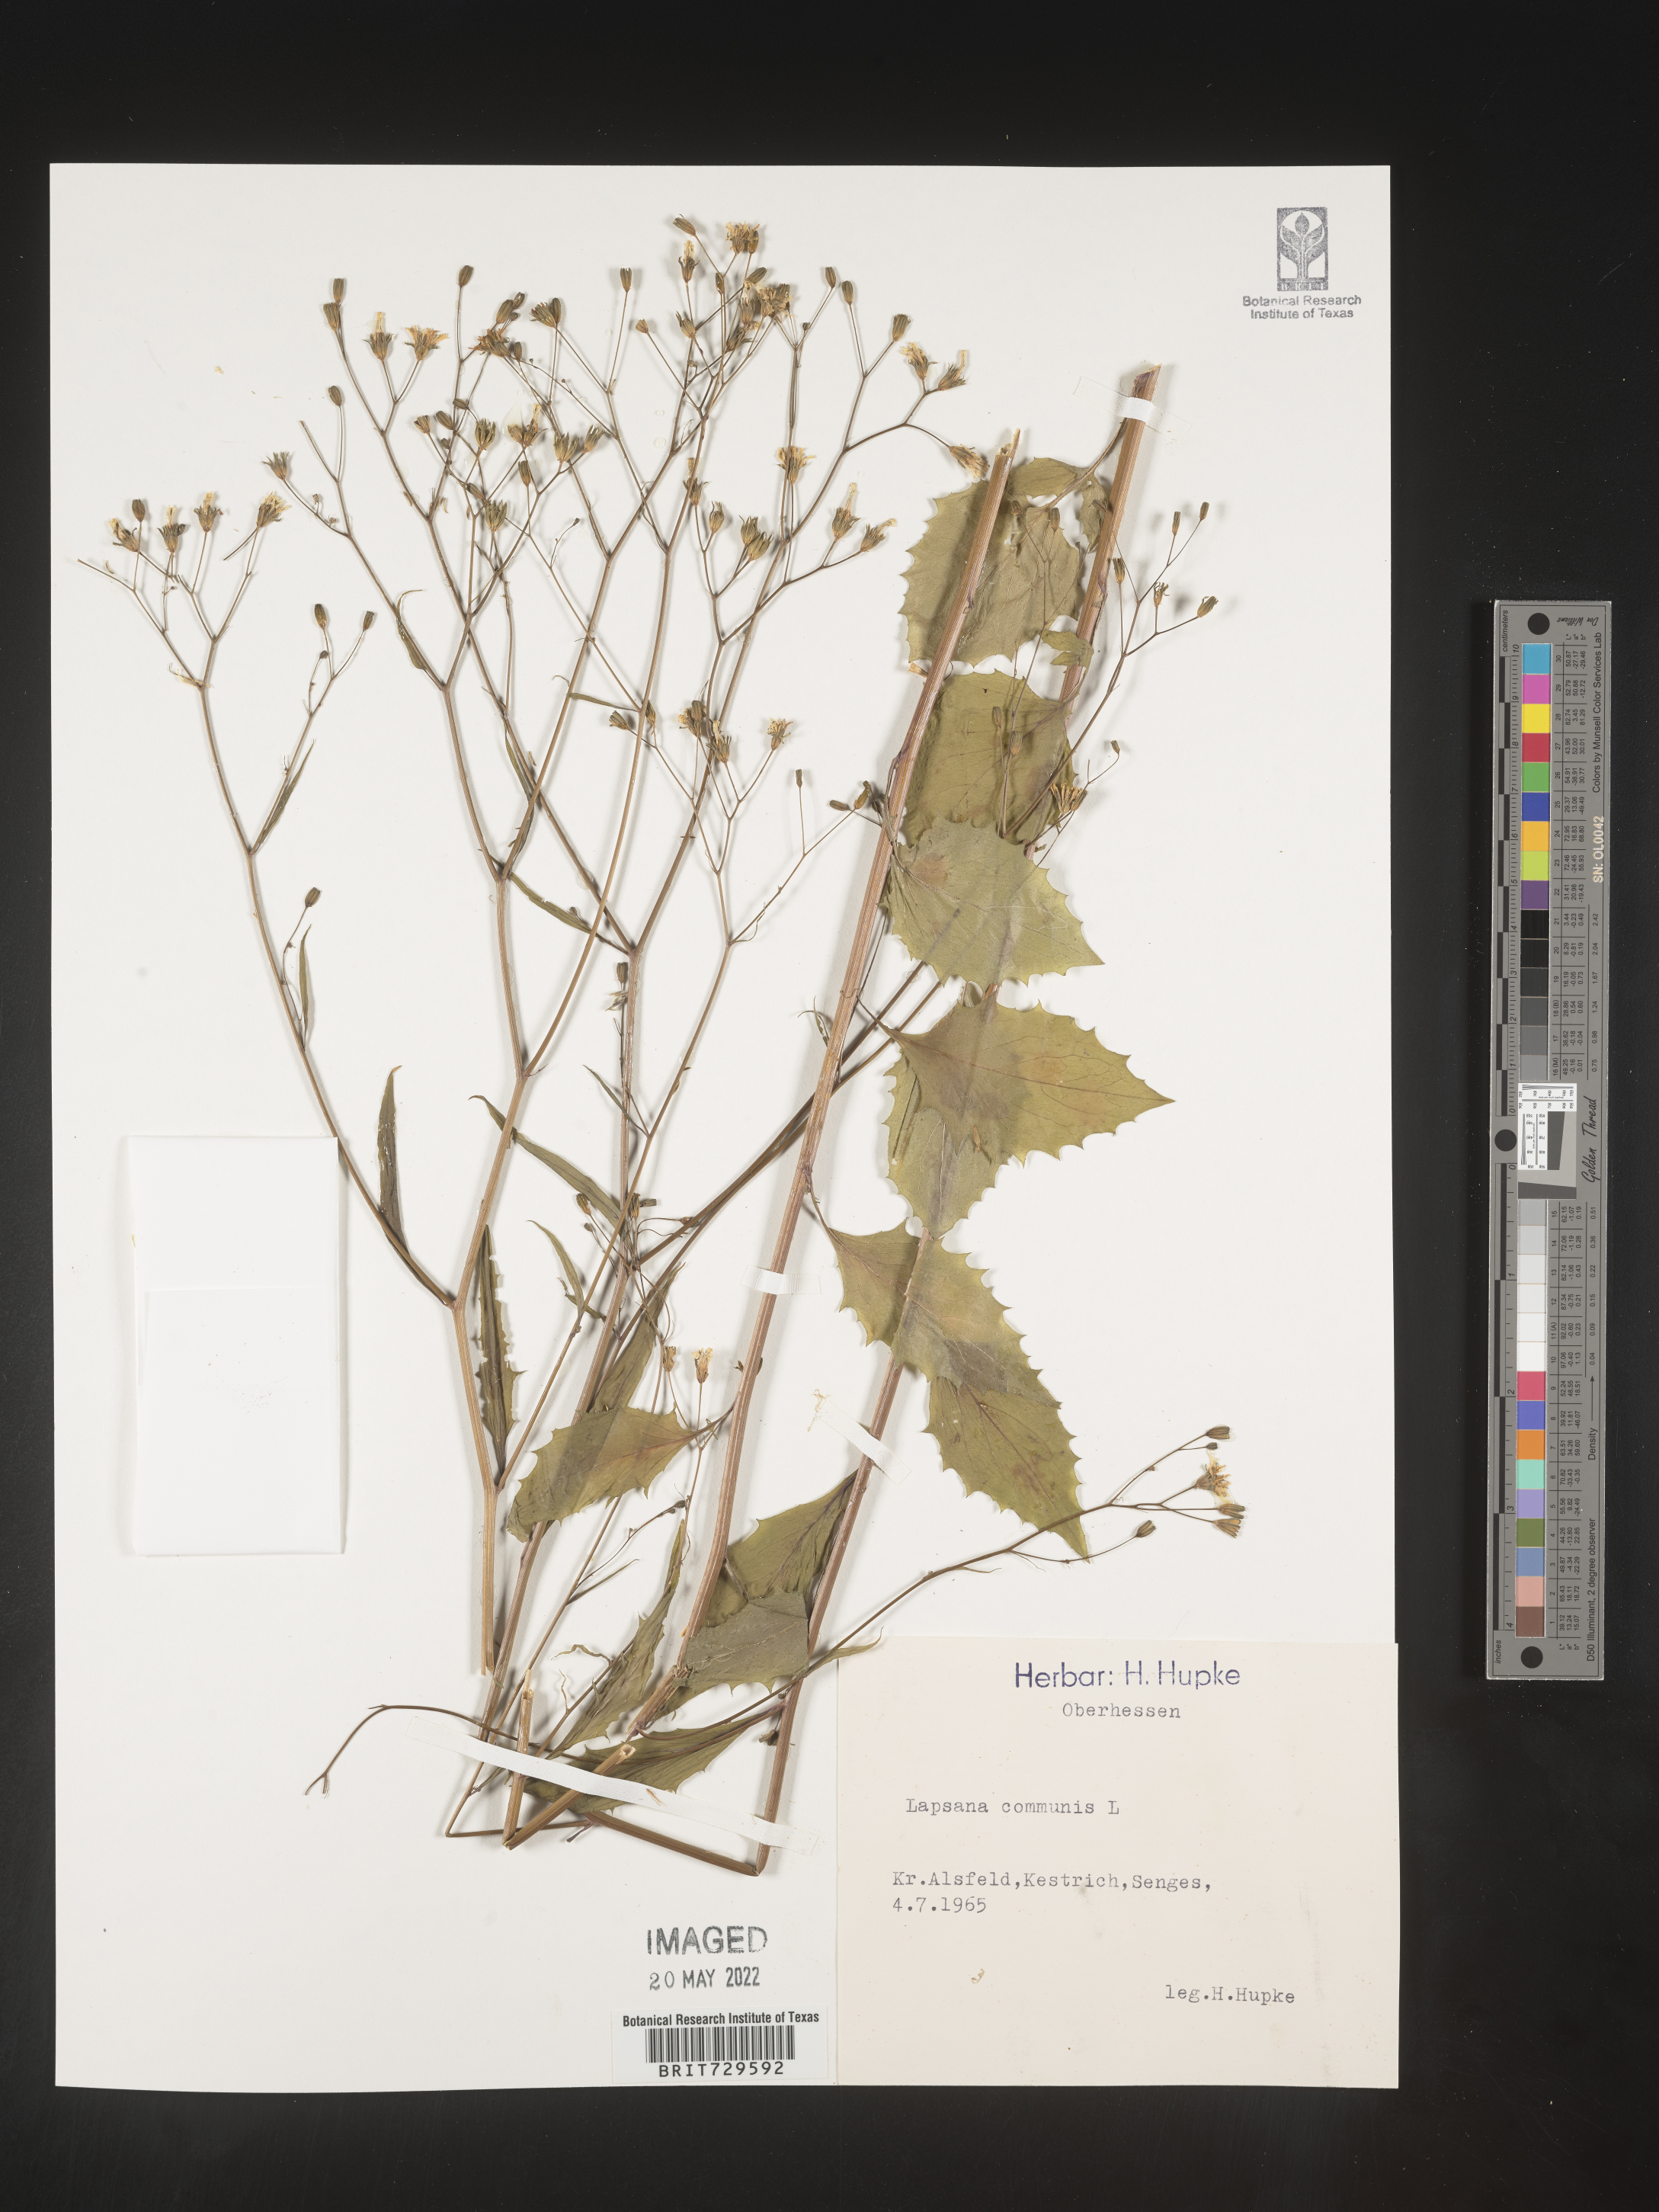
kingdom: Plantae
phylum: Tracheophyta
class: Magnoliopsida
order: Asterales
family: Asteraceae
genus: Lapsana
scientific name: Lapsana
